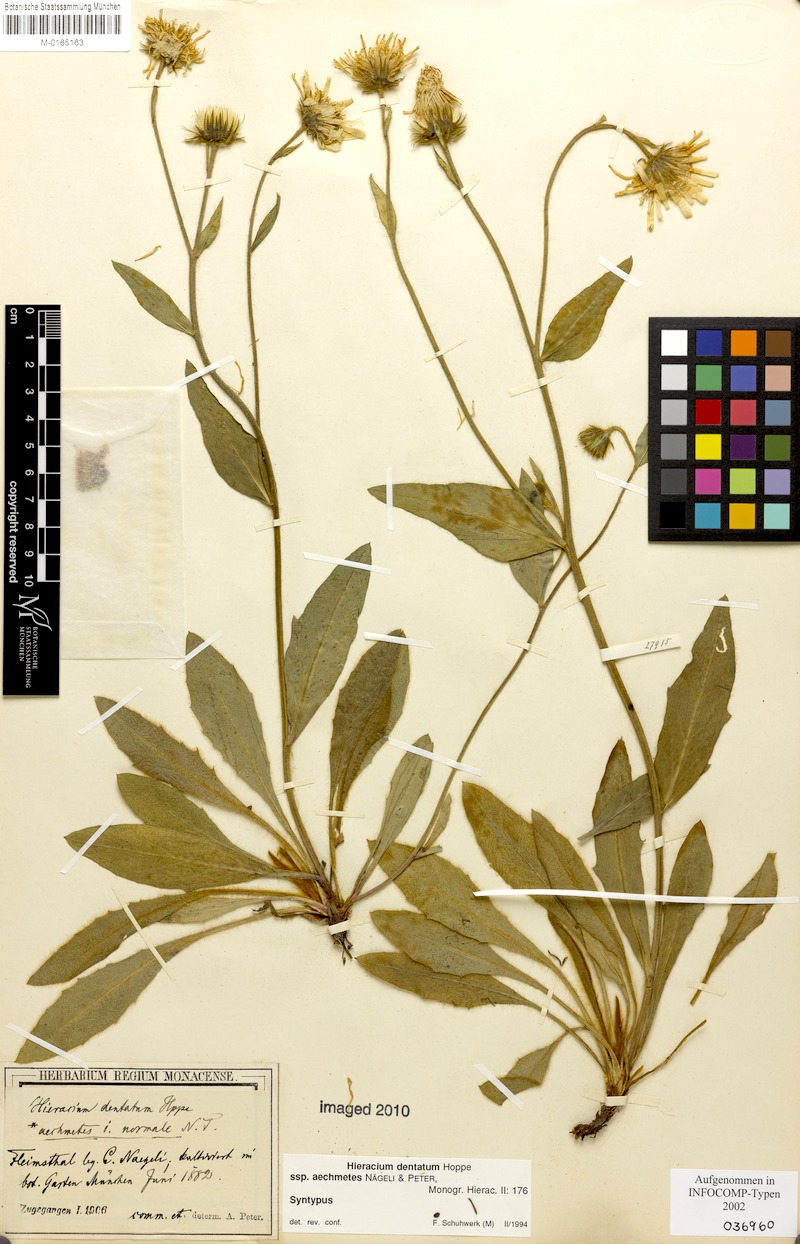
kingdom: Plantae
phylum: Tracheophyta
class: Magnoliopsida
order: Asterales
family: Asteraceae
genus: Hieracium
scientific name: Hieracium dentatum
